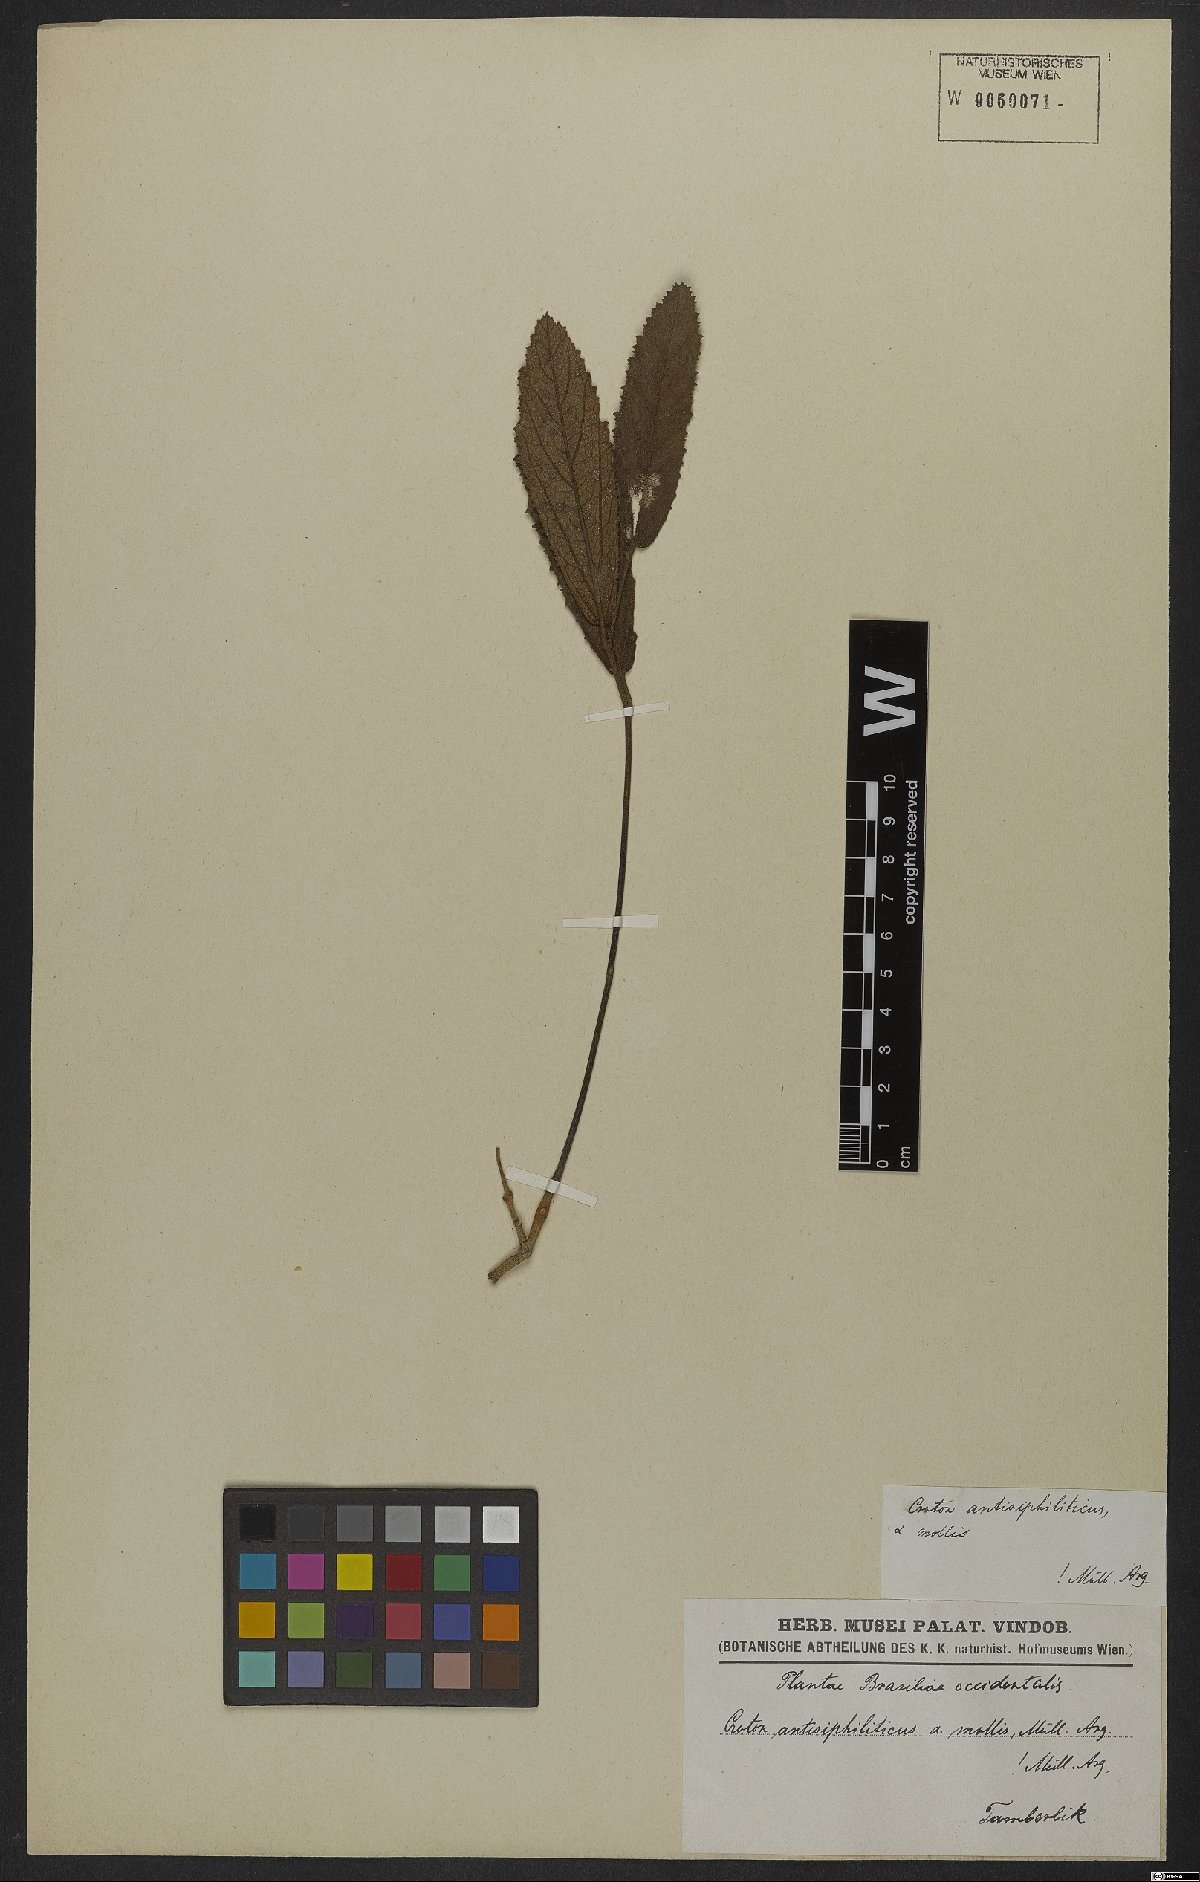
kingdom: Plantae
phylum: Tracheophyta
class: Magnoliopsida
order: Malpighiales
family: Euphorbiaceae
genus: Croton
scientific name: Croton antisyphiliticus
